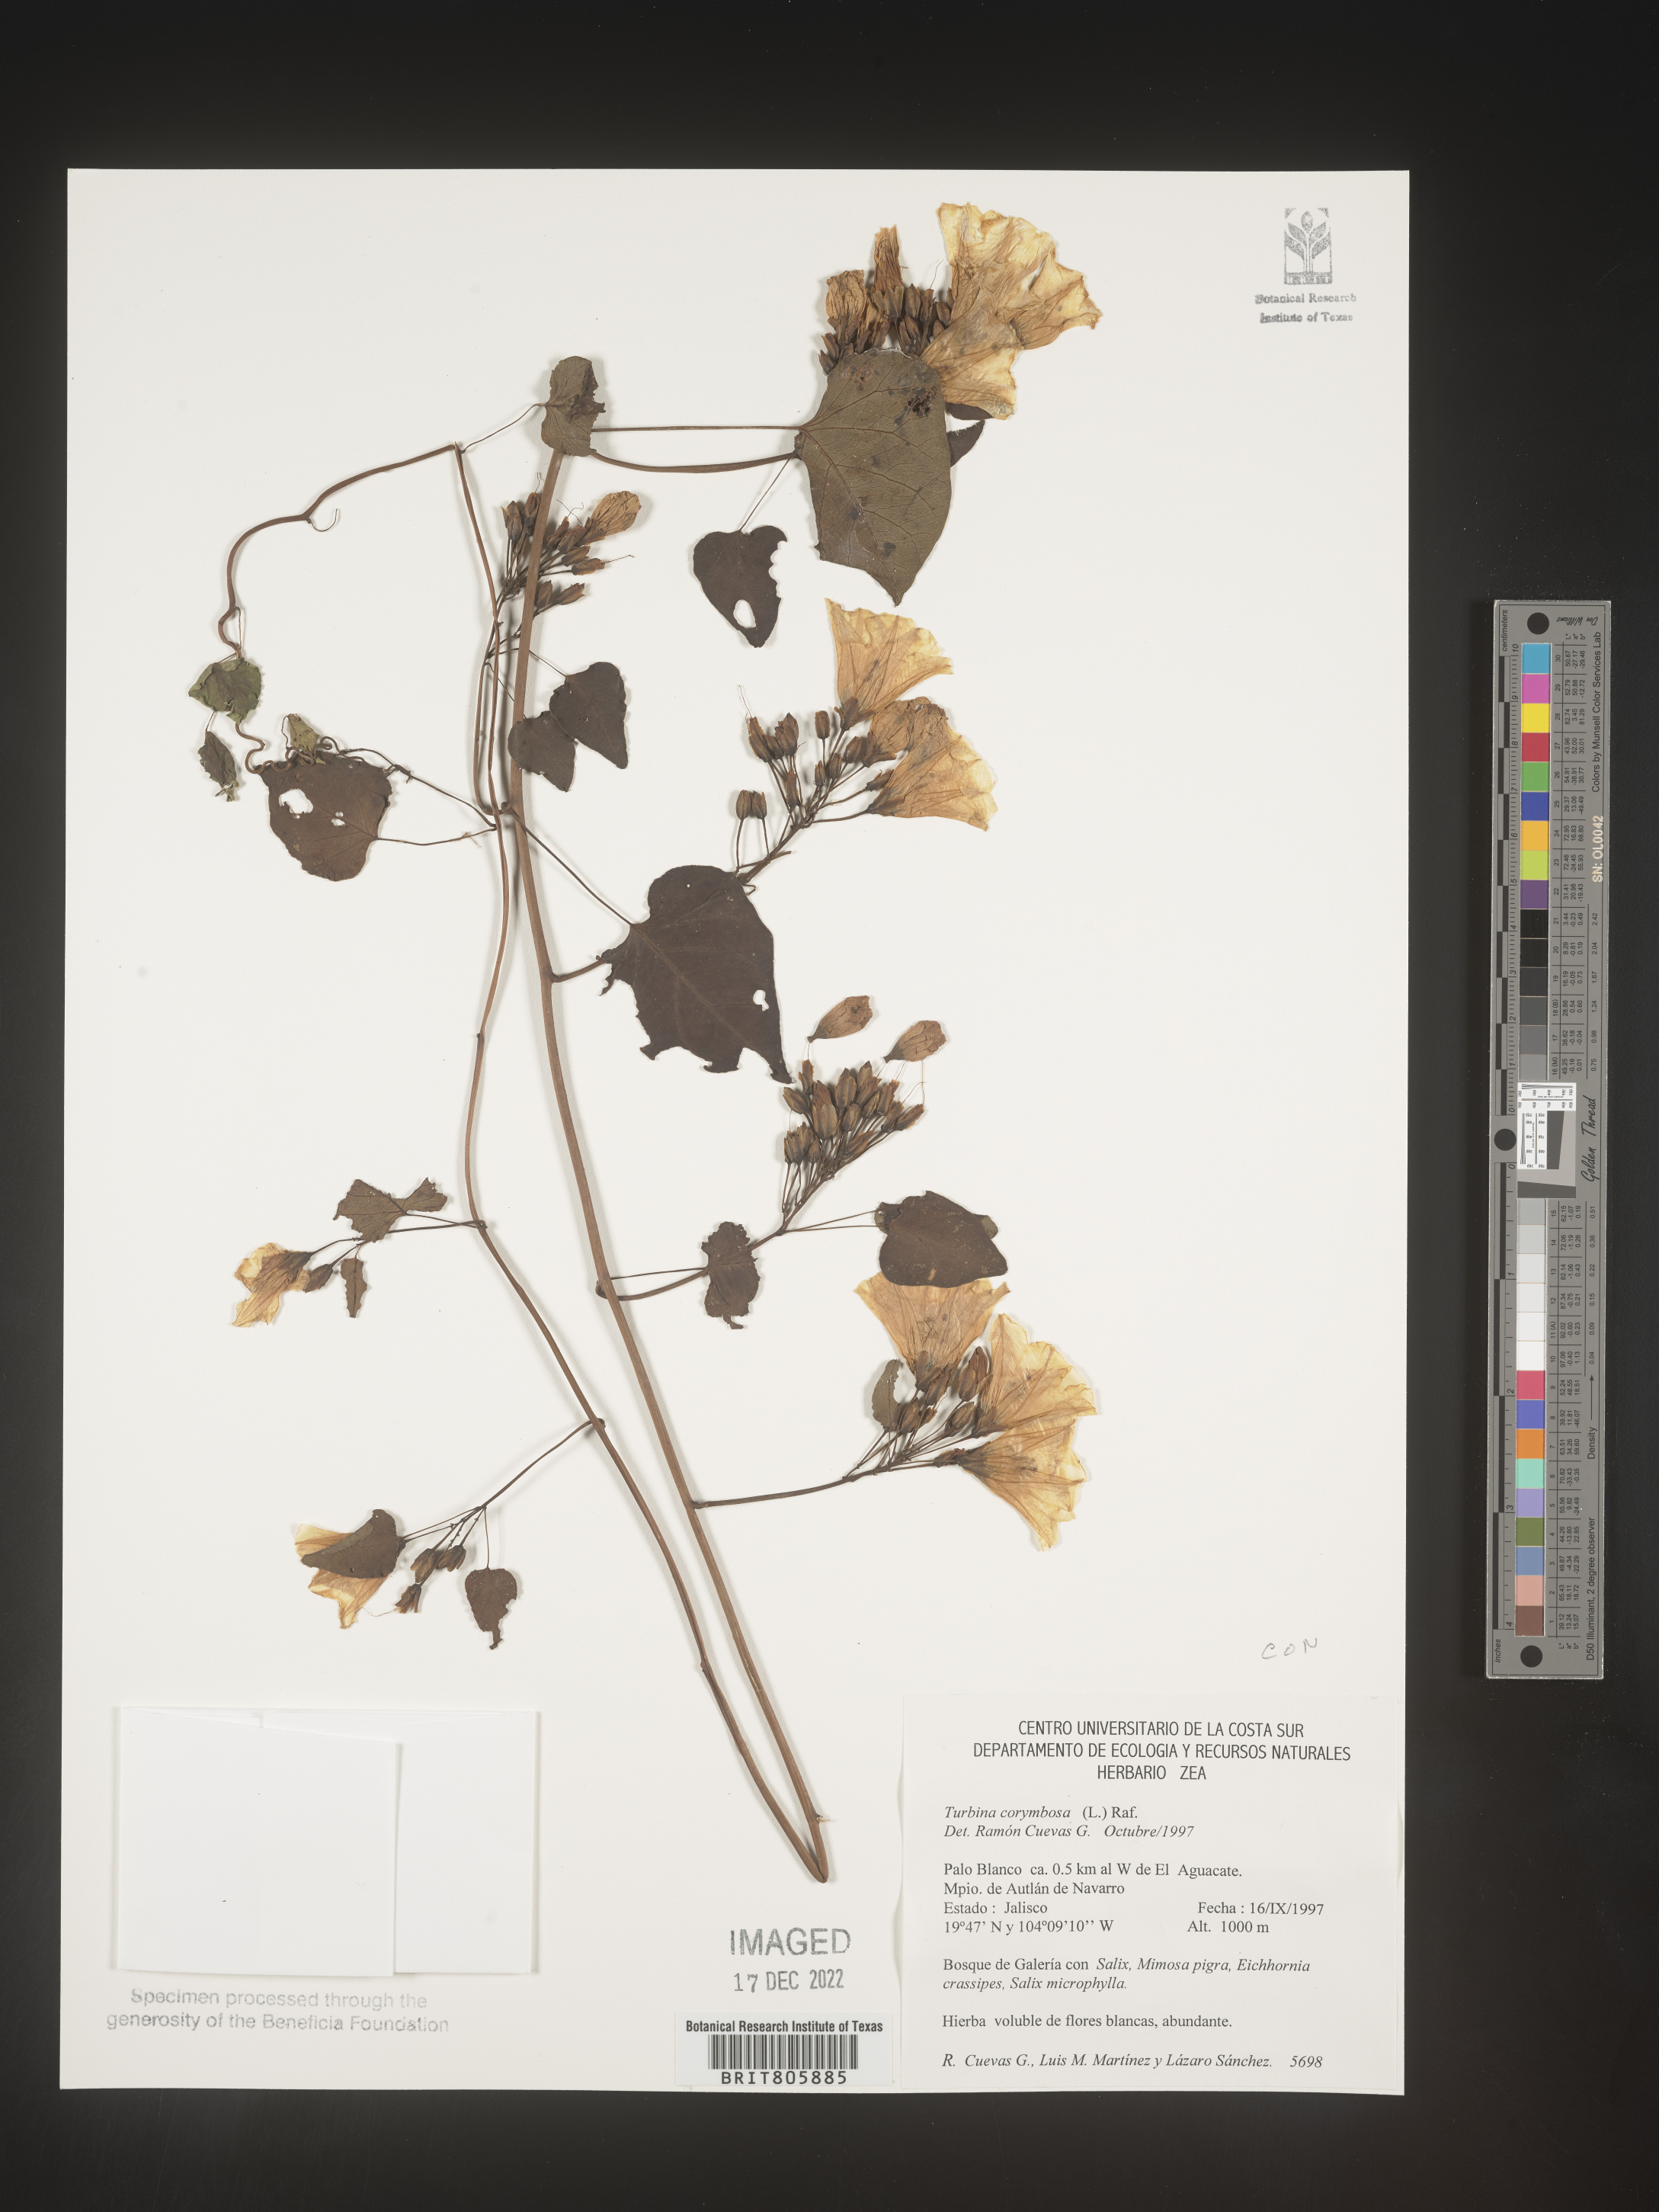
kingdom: Animalia
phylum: Mollusca
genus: Turbina
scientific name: Turbina
